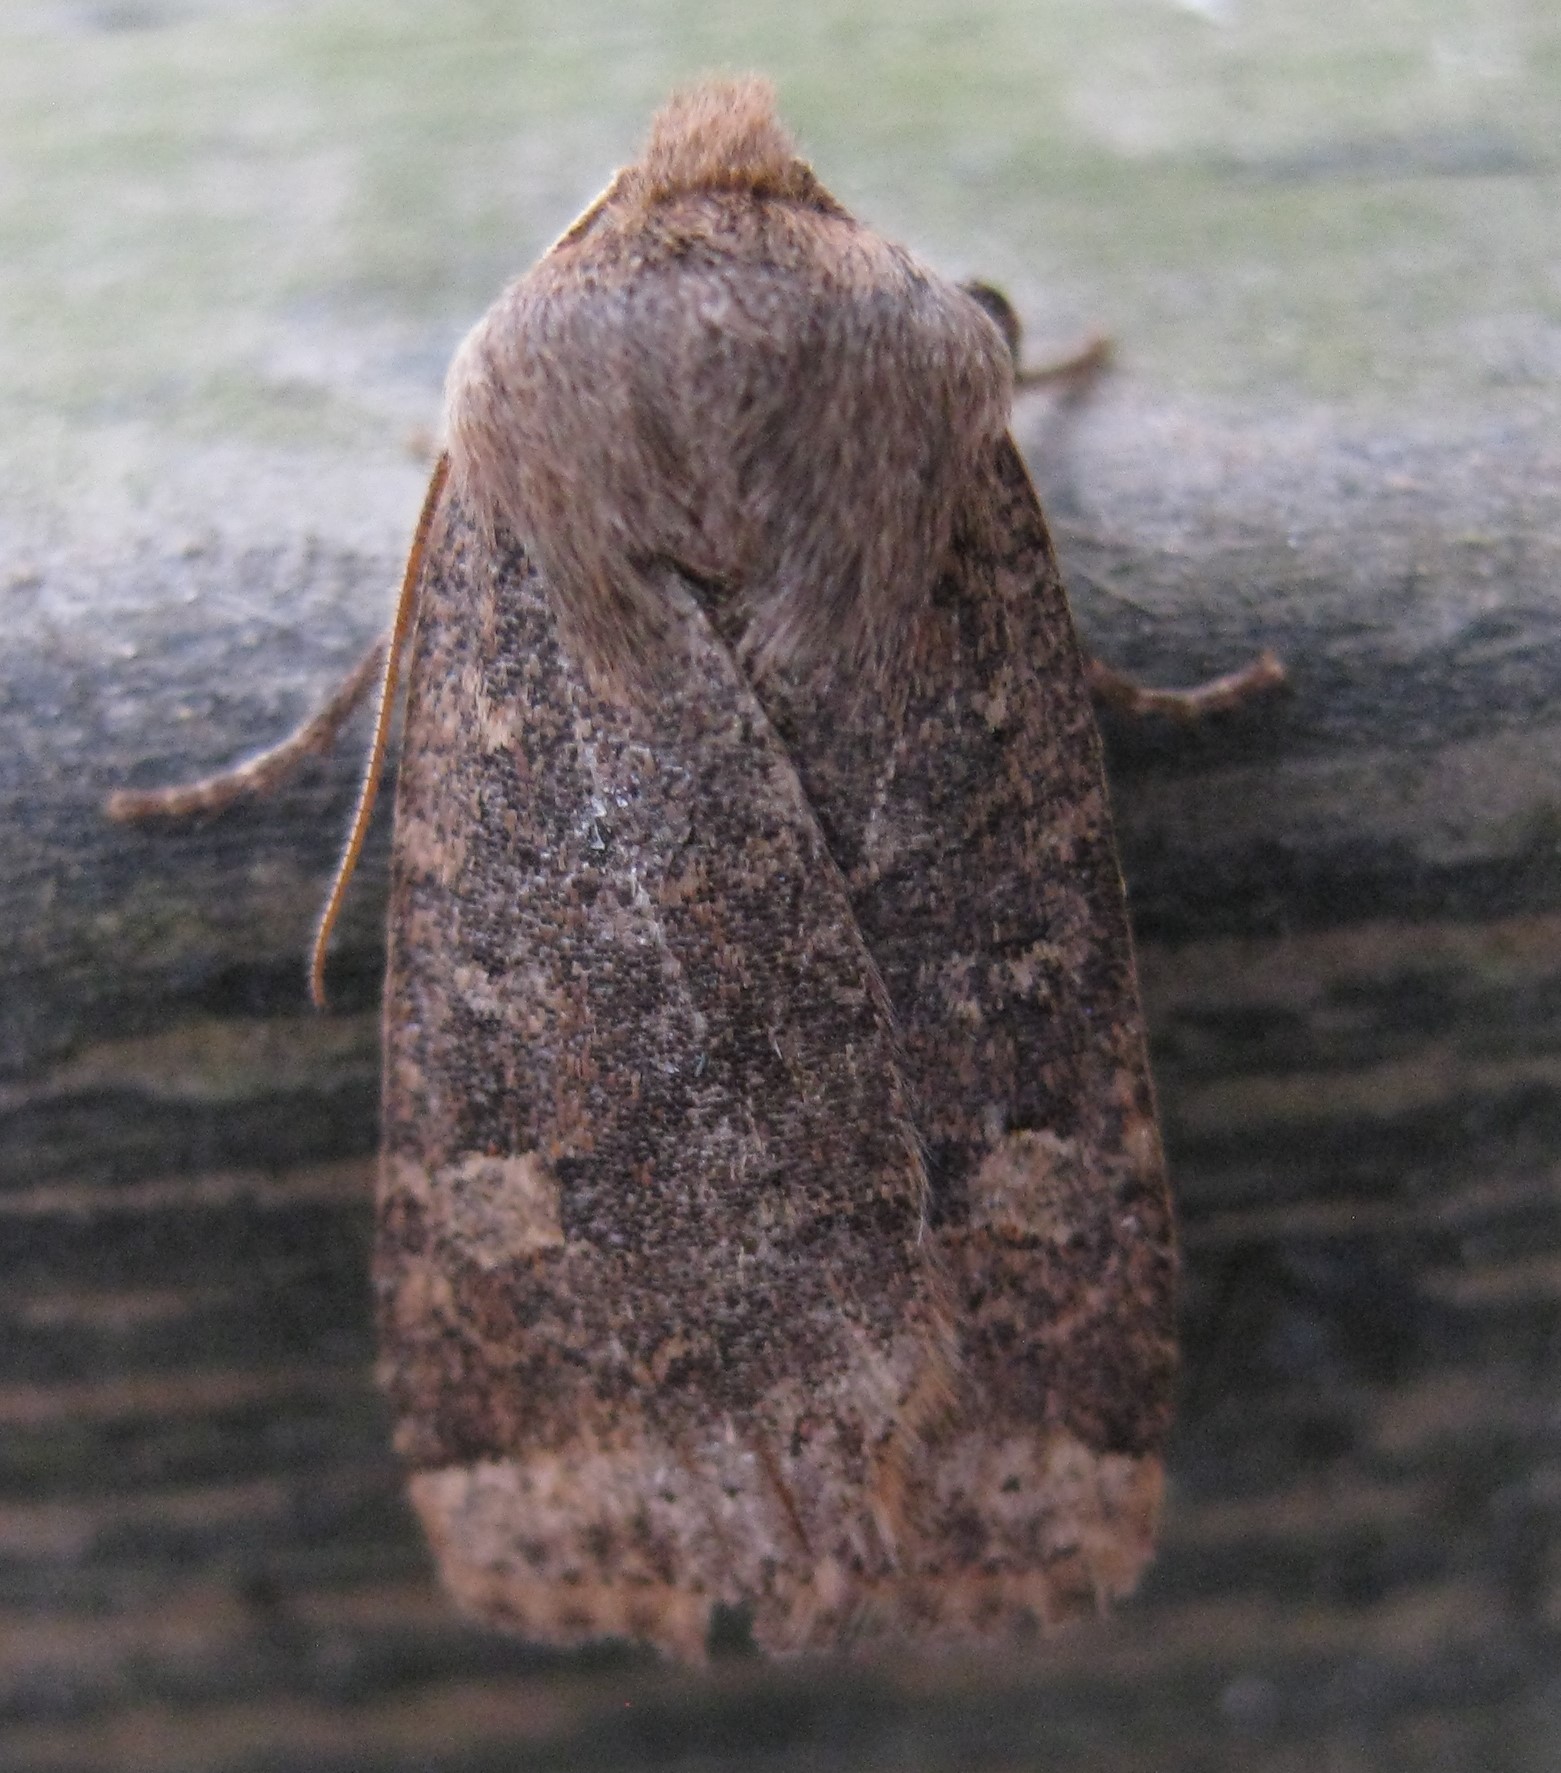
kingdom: Animalia
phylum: Arthropoda
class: Insecta
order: Lepidoptera
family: Noctuidae
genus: Conistra
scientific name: Conistra vaccinii
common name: Chestnut
